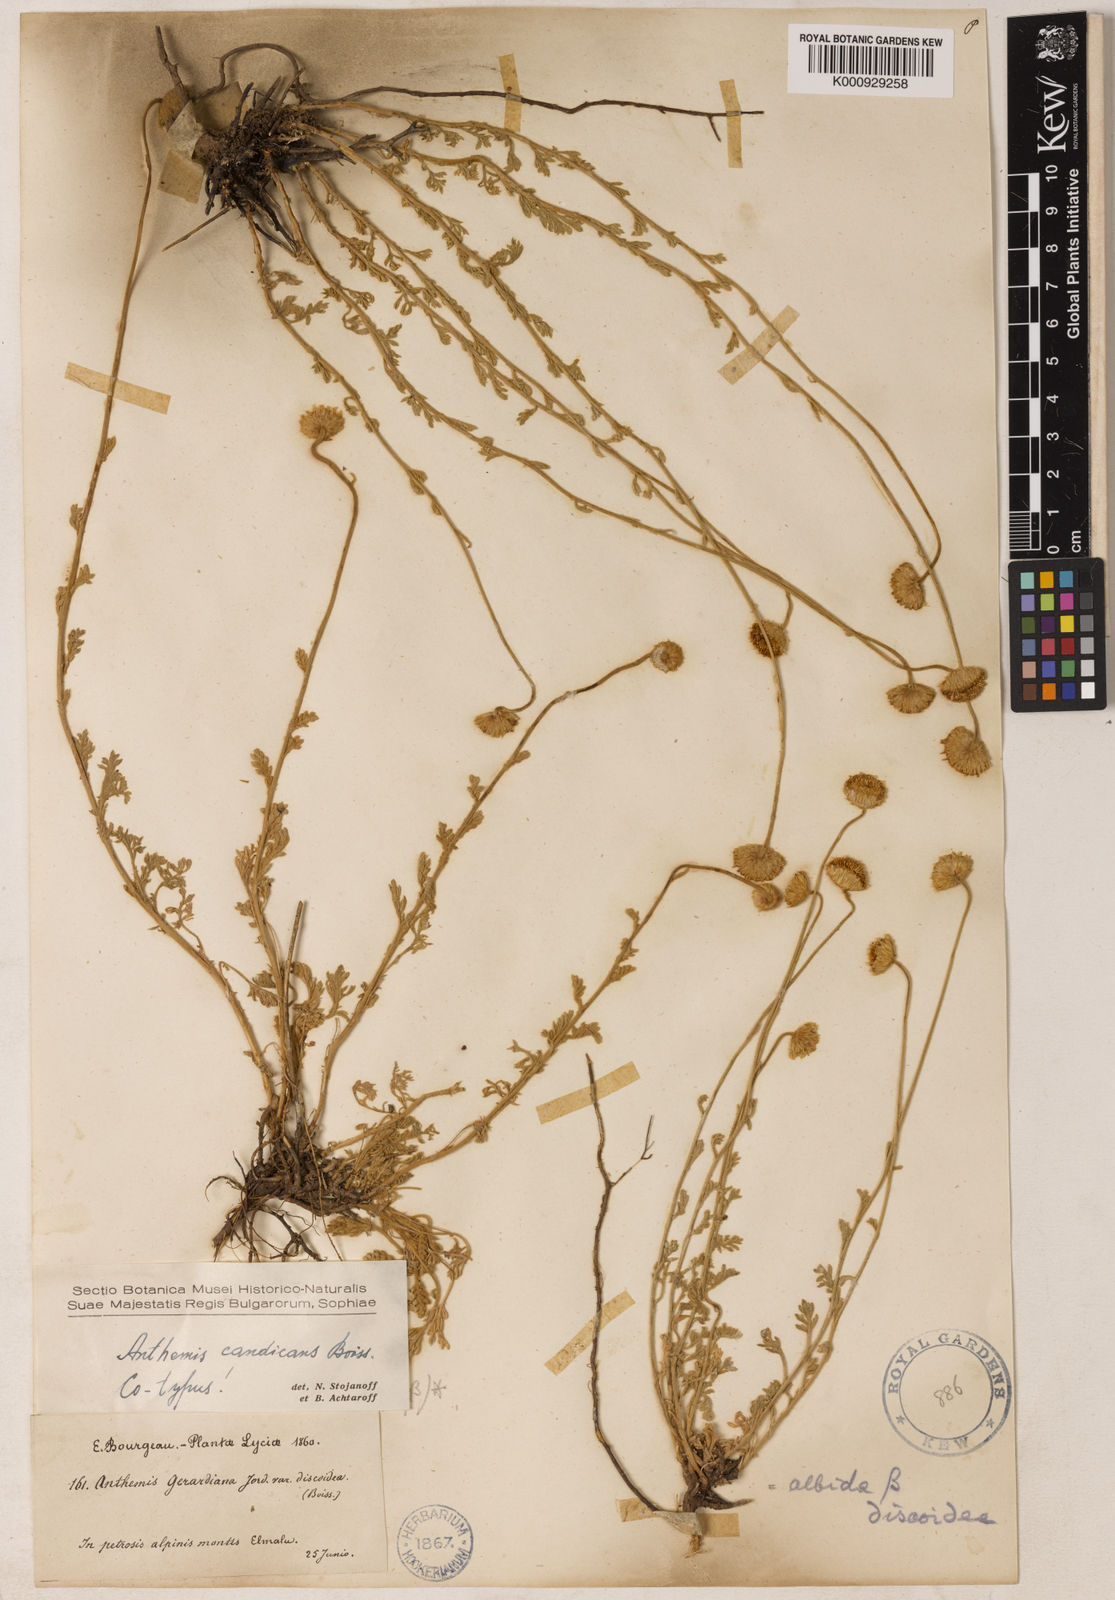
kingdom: Plantae
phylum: Tracheophyta
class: Magnoliopsida
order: Asterales
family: Asteraceae
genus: Anthemis
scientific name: Anthemis cretica
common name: Mountain dog-daisy
